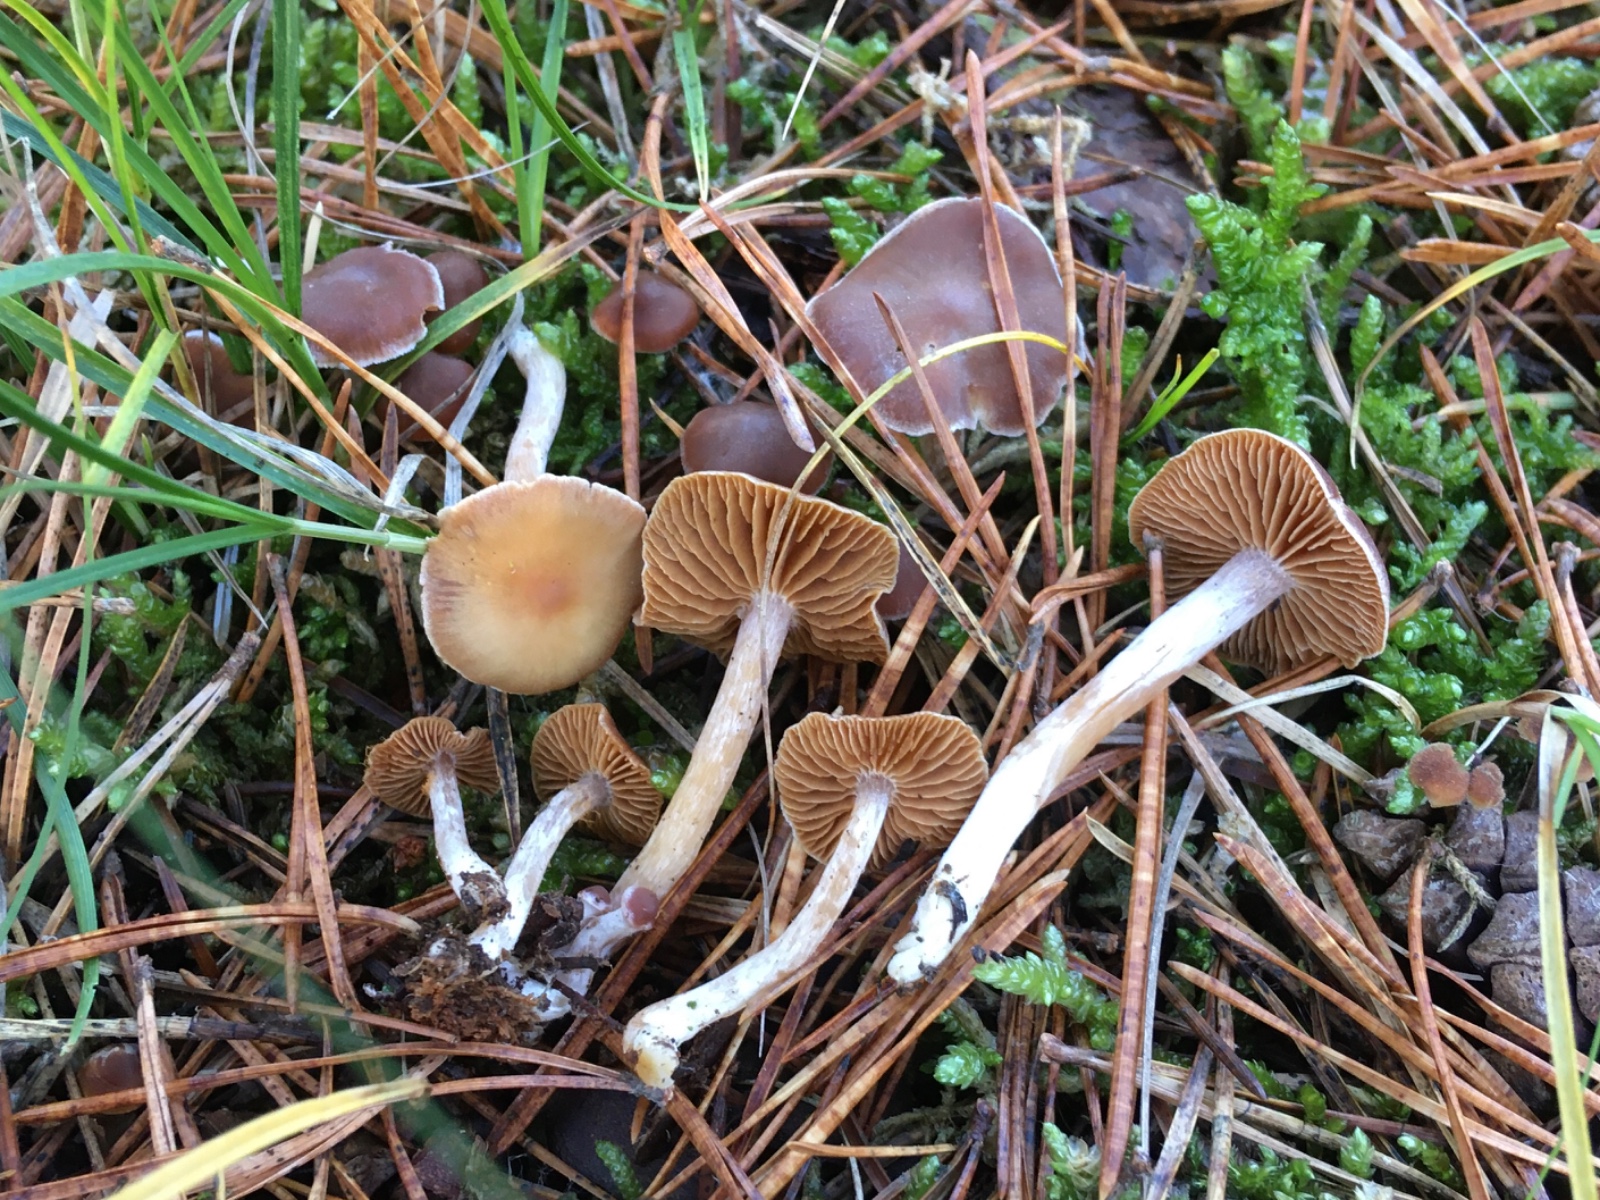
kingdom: Fungi
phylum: Basidiomycota
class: Agaricomycetes
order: Agaricales
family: Cortinariaceae
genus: Cortinarius
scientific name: Cortinarius
